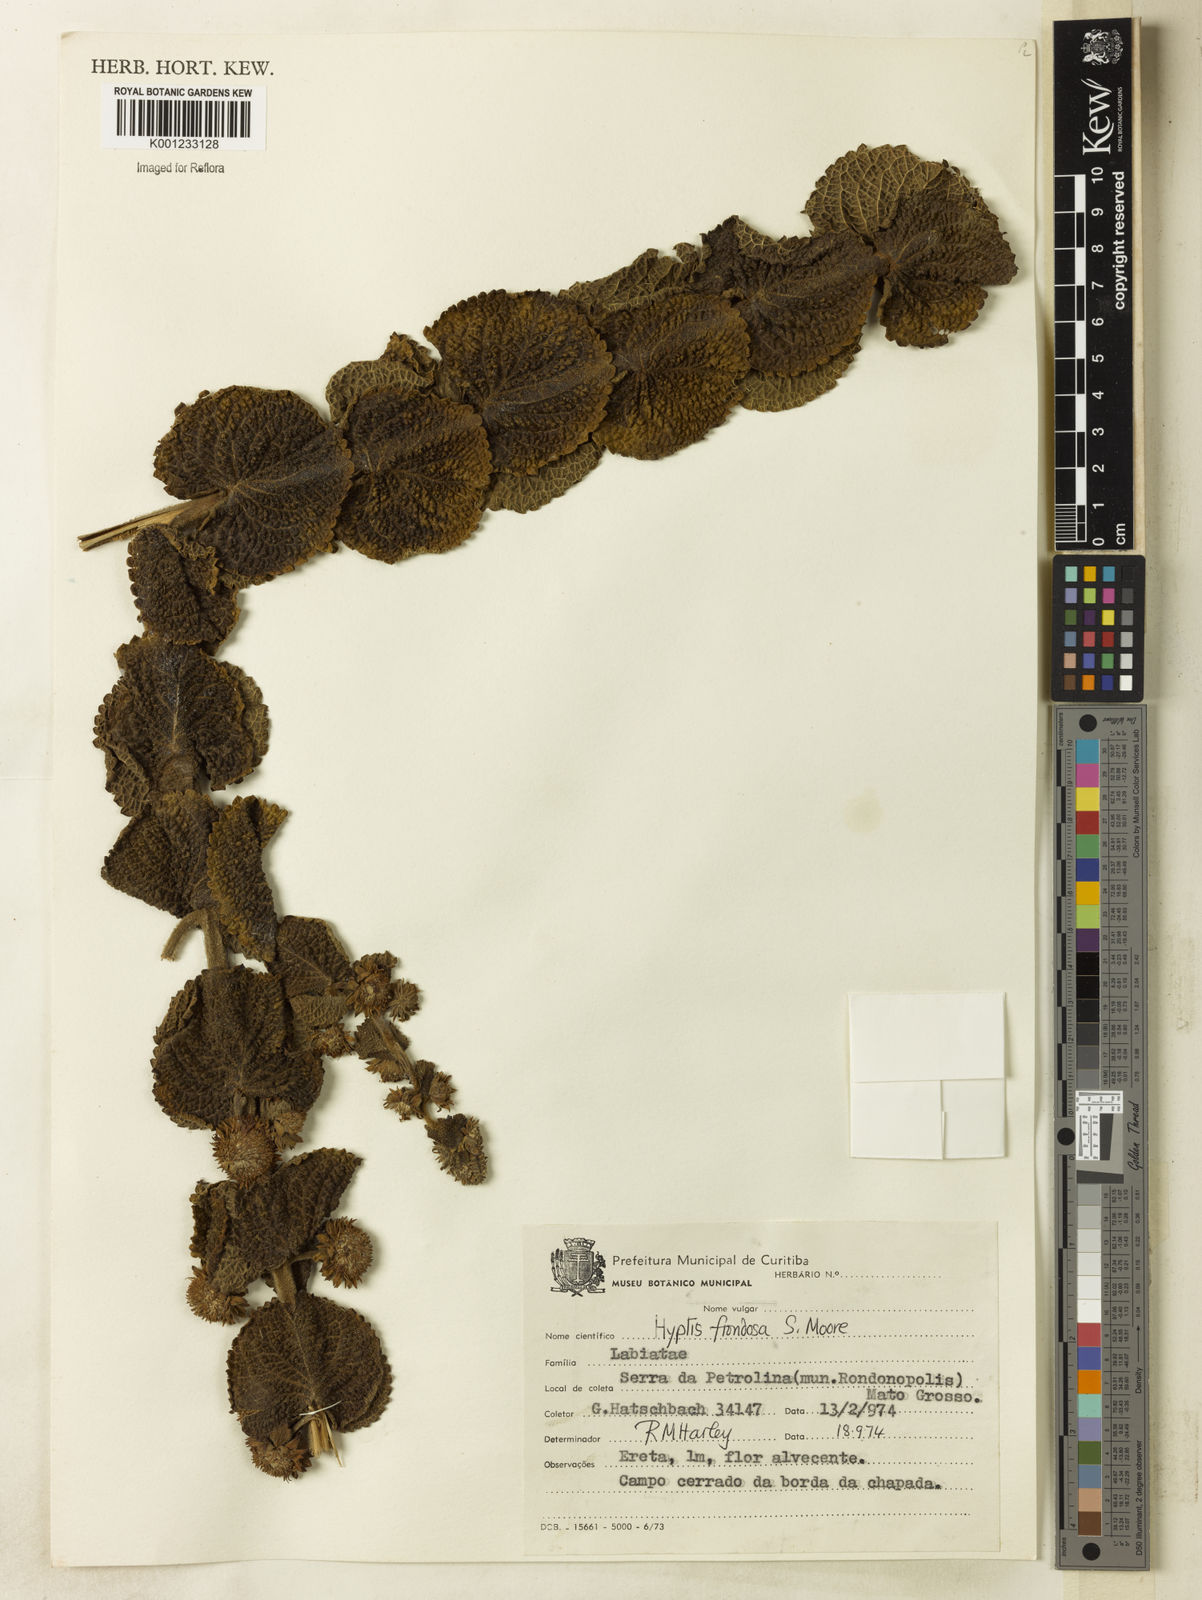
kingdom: Plantae
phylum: Tracheophyta
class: Magnoliopsida
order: Lamiales
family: Lamiaceae
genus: Hyptis
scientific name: Hyptis frondosa
